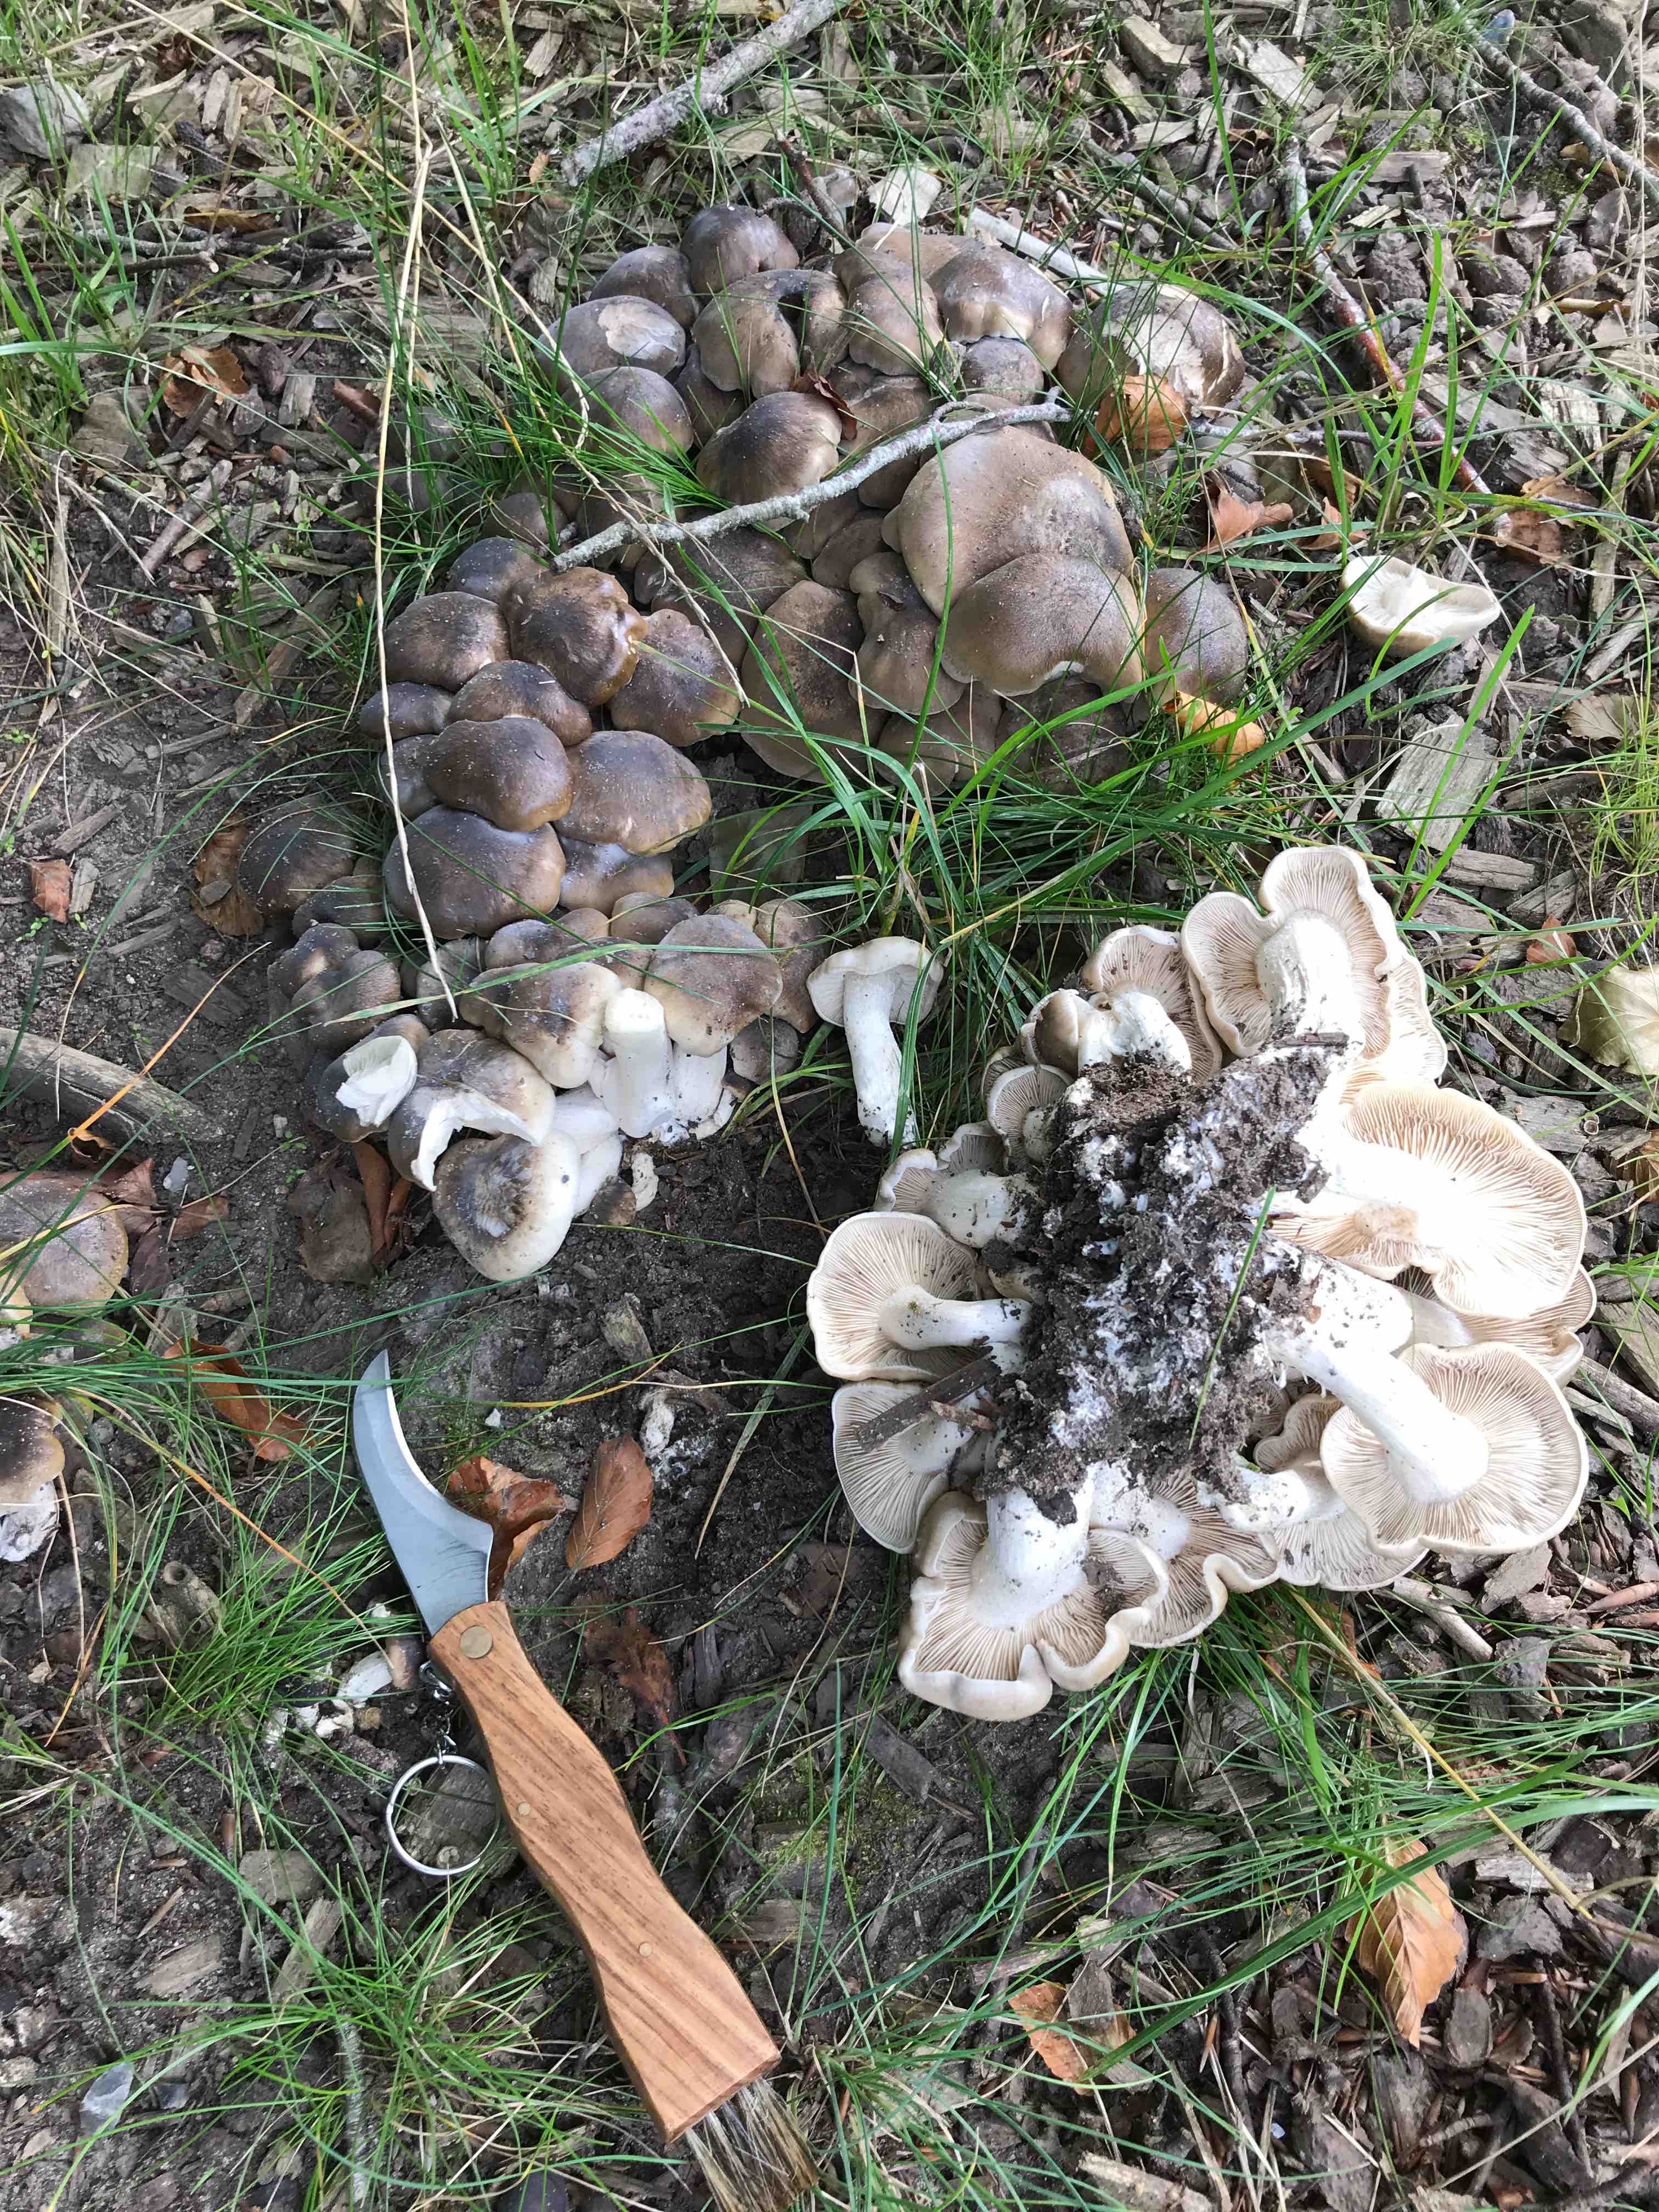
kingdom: Fungi
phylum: Basidiomycota
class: Agaricomycetes
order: Agaricales
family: Lyophyllaceae
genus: Lyophyllum
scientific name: Lyophyllum decastes
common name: Clustered domecap
